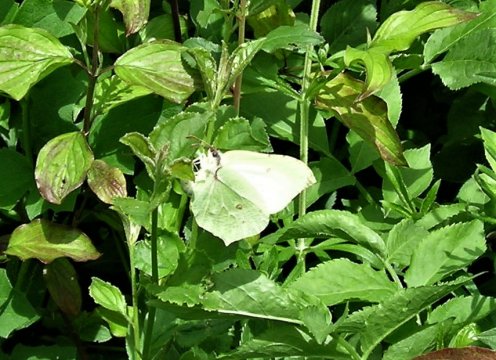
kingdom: Animalia
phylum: Arthropoda
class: Insecta
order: Lepidoptera
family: Pieridae
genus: Gonepteryx
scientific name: Gonepteryx rhamni
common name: Common Brimstone
